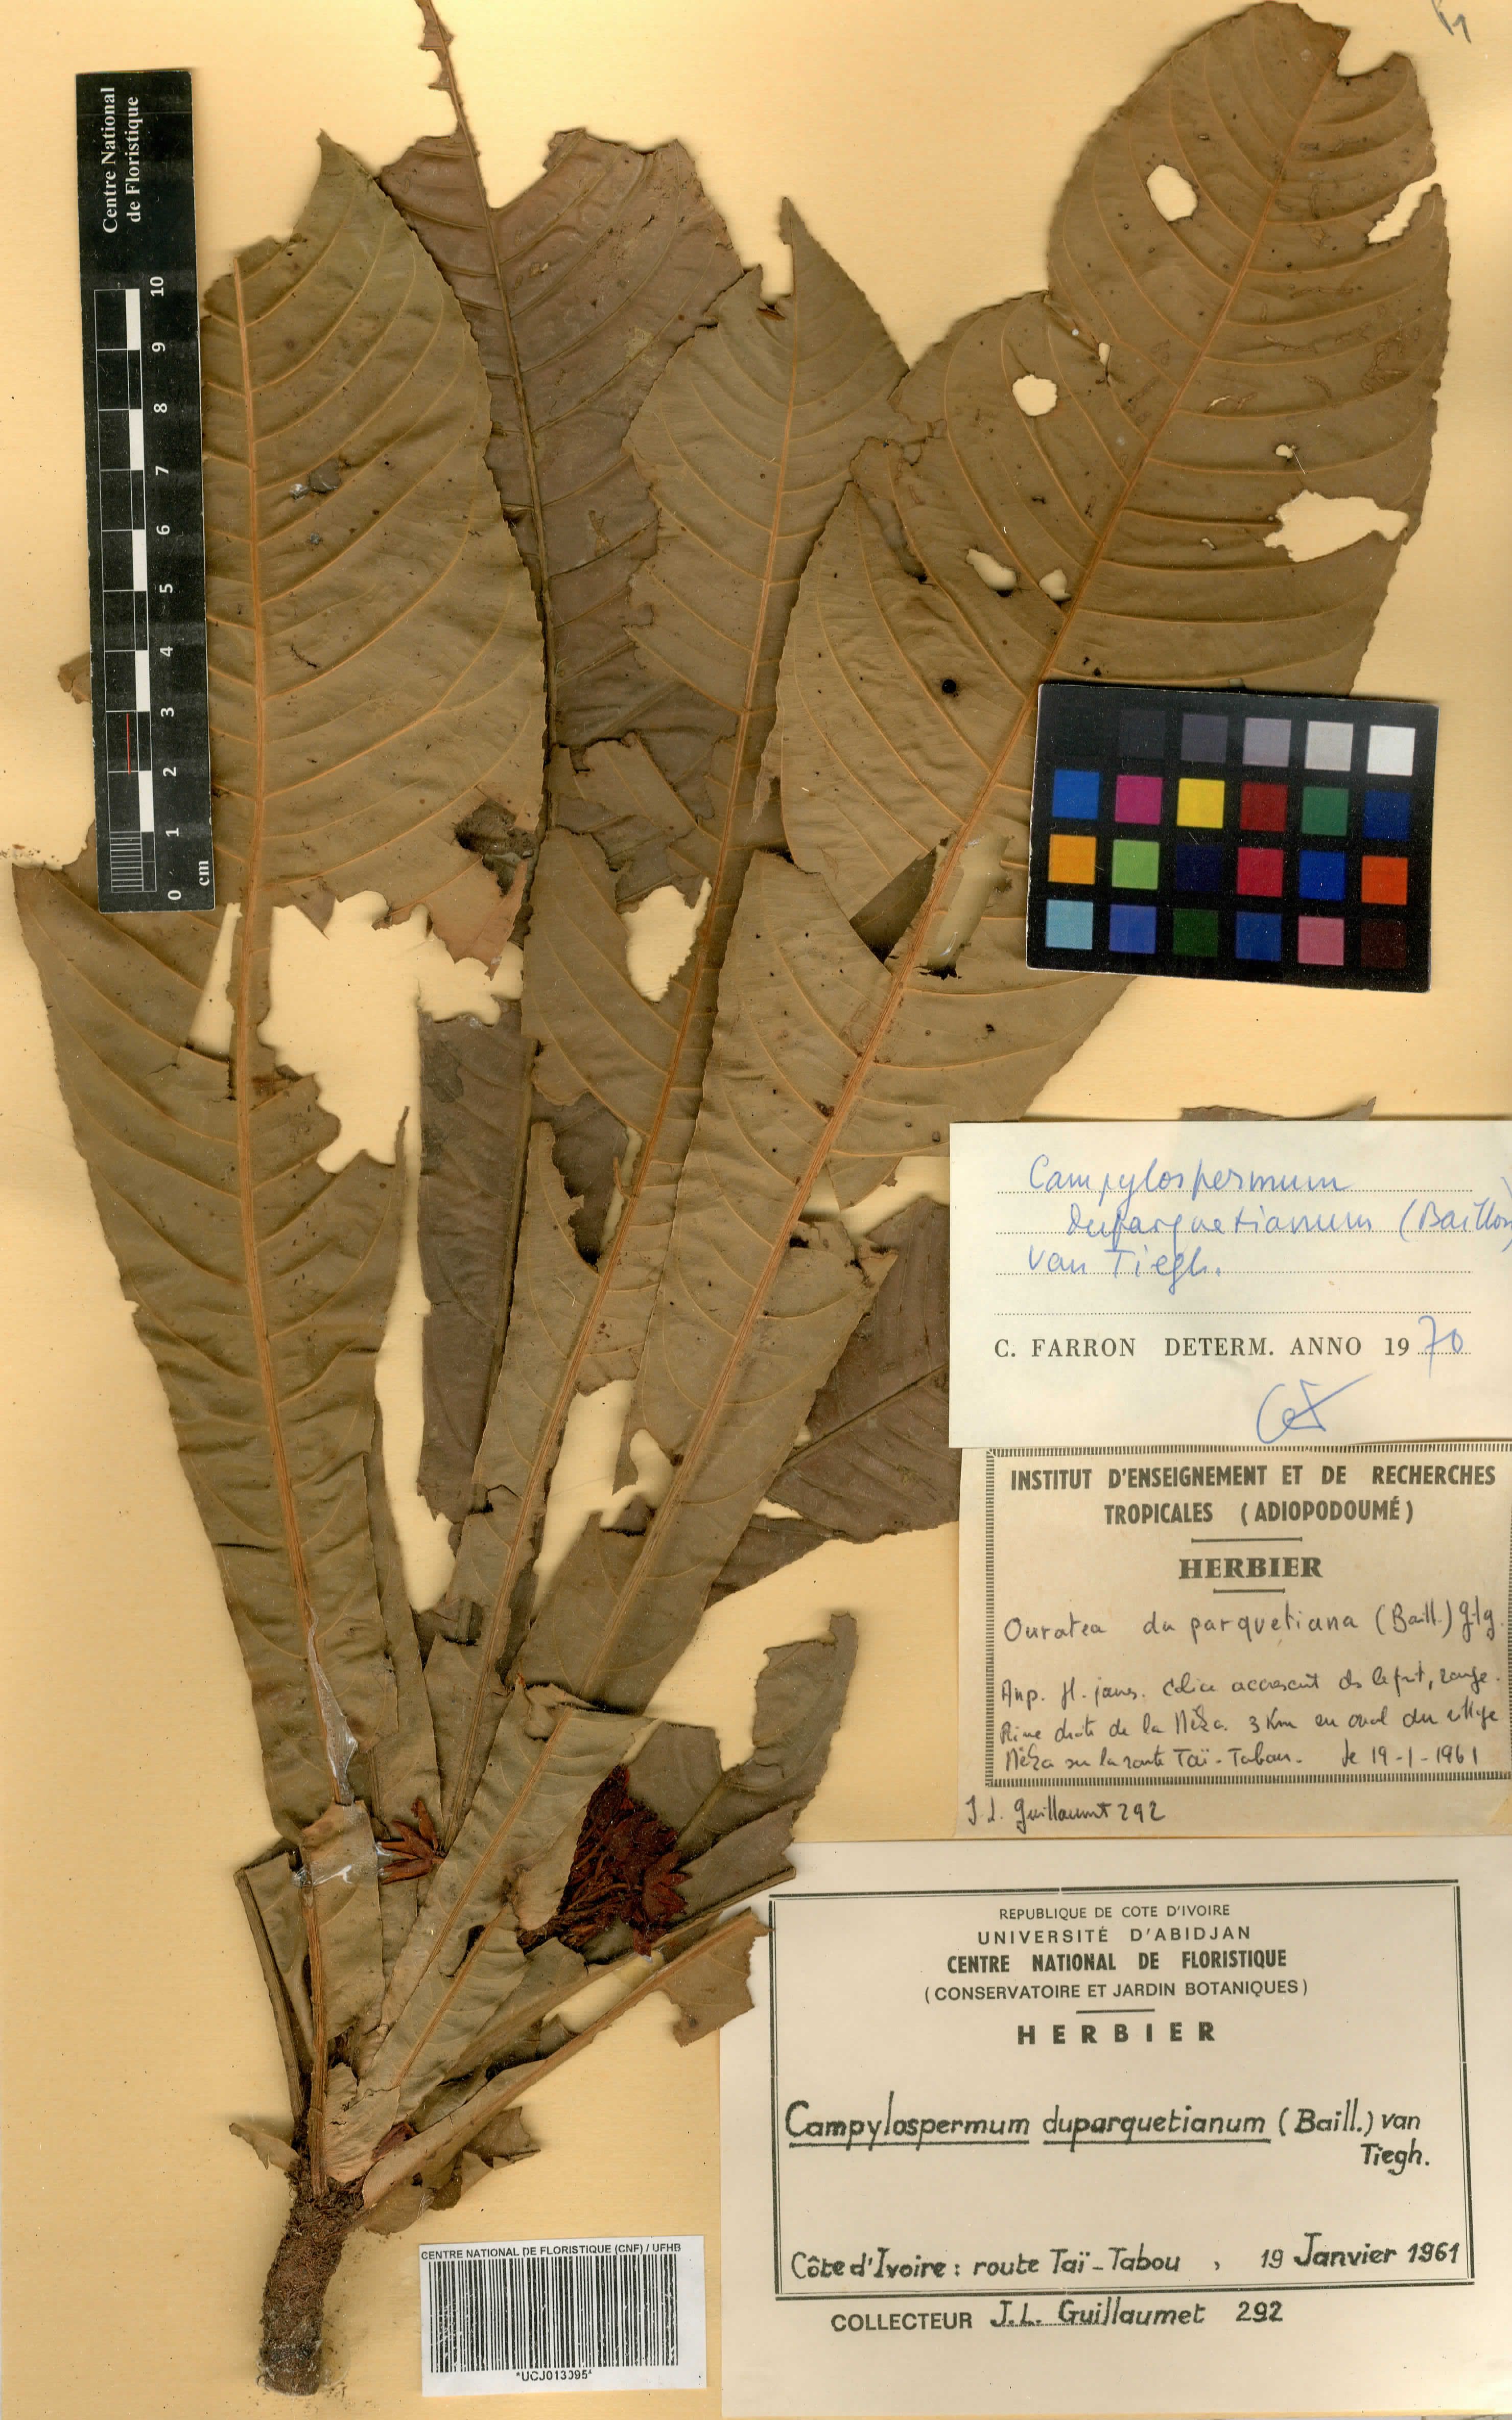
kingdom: Plantae
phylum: Tracheophyta
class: Magnoliopsida
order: Malpighiales
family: Ochnaceae
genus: Campylospermum
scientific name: Campylospermum duparquetianum
